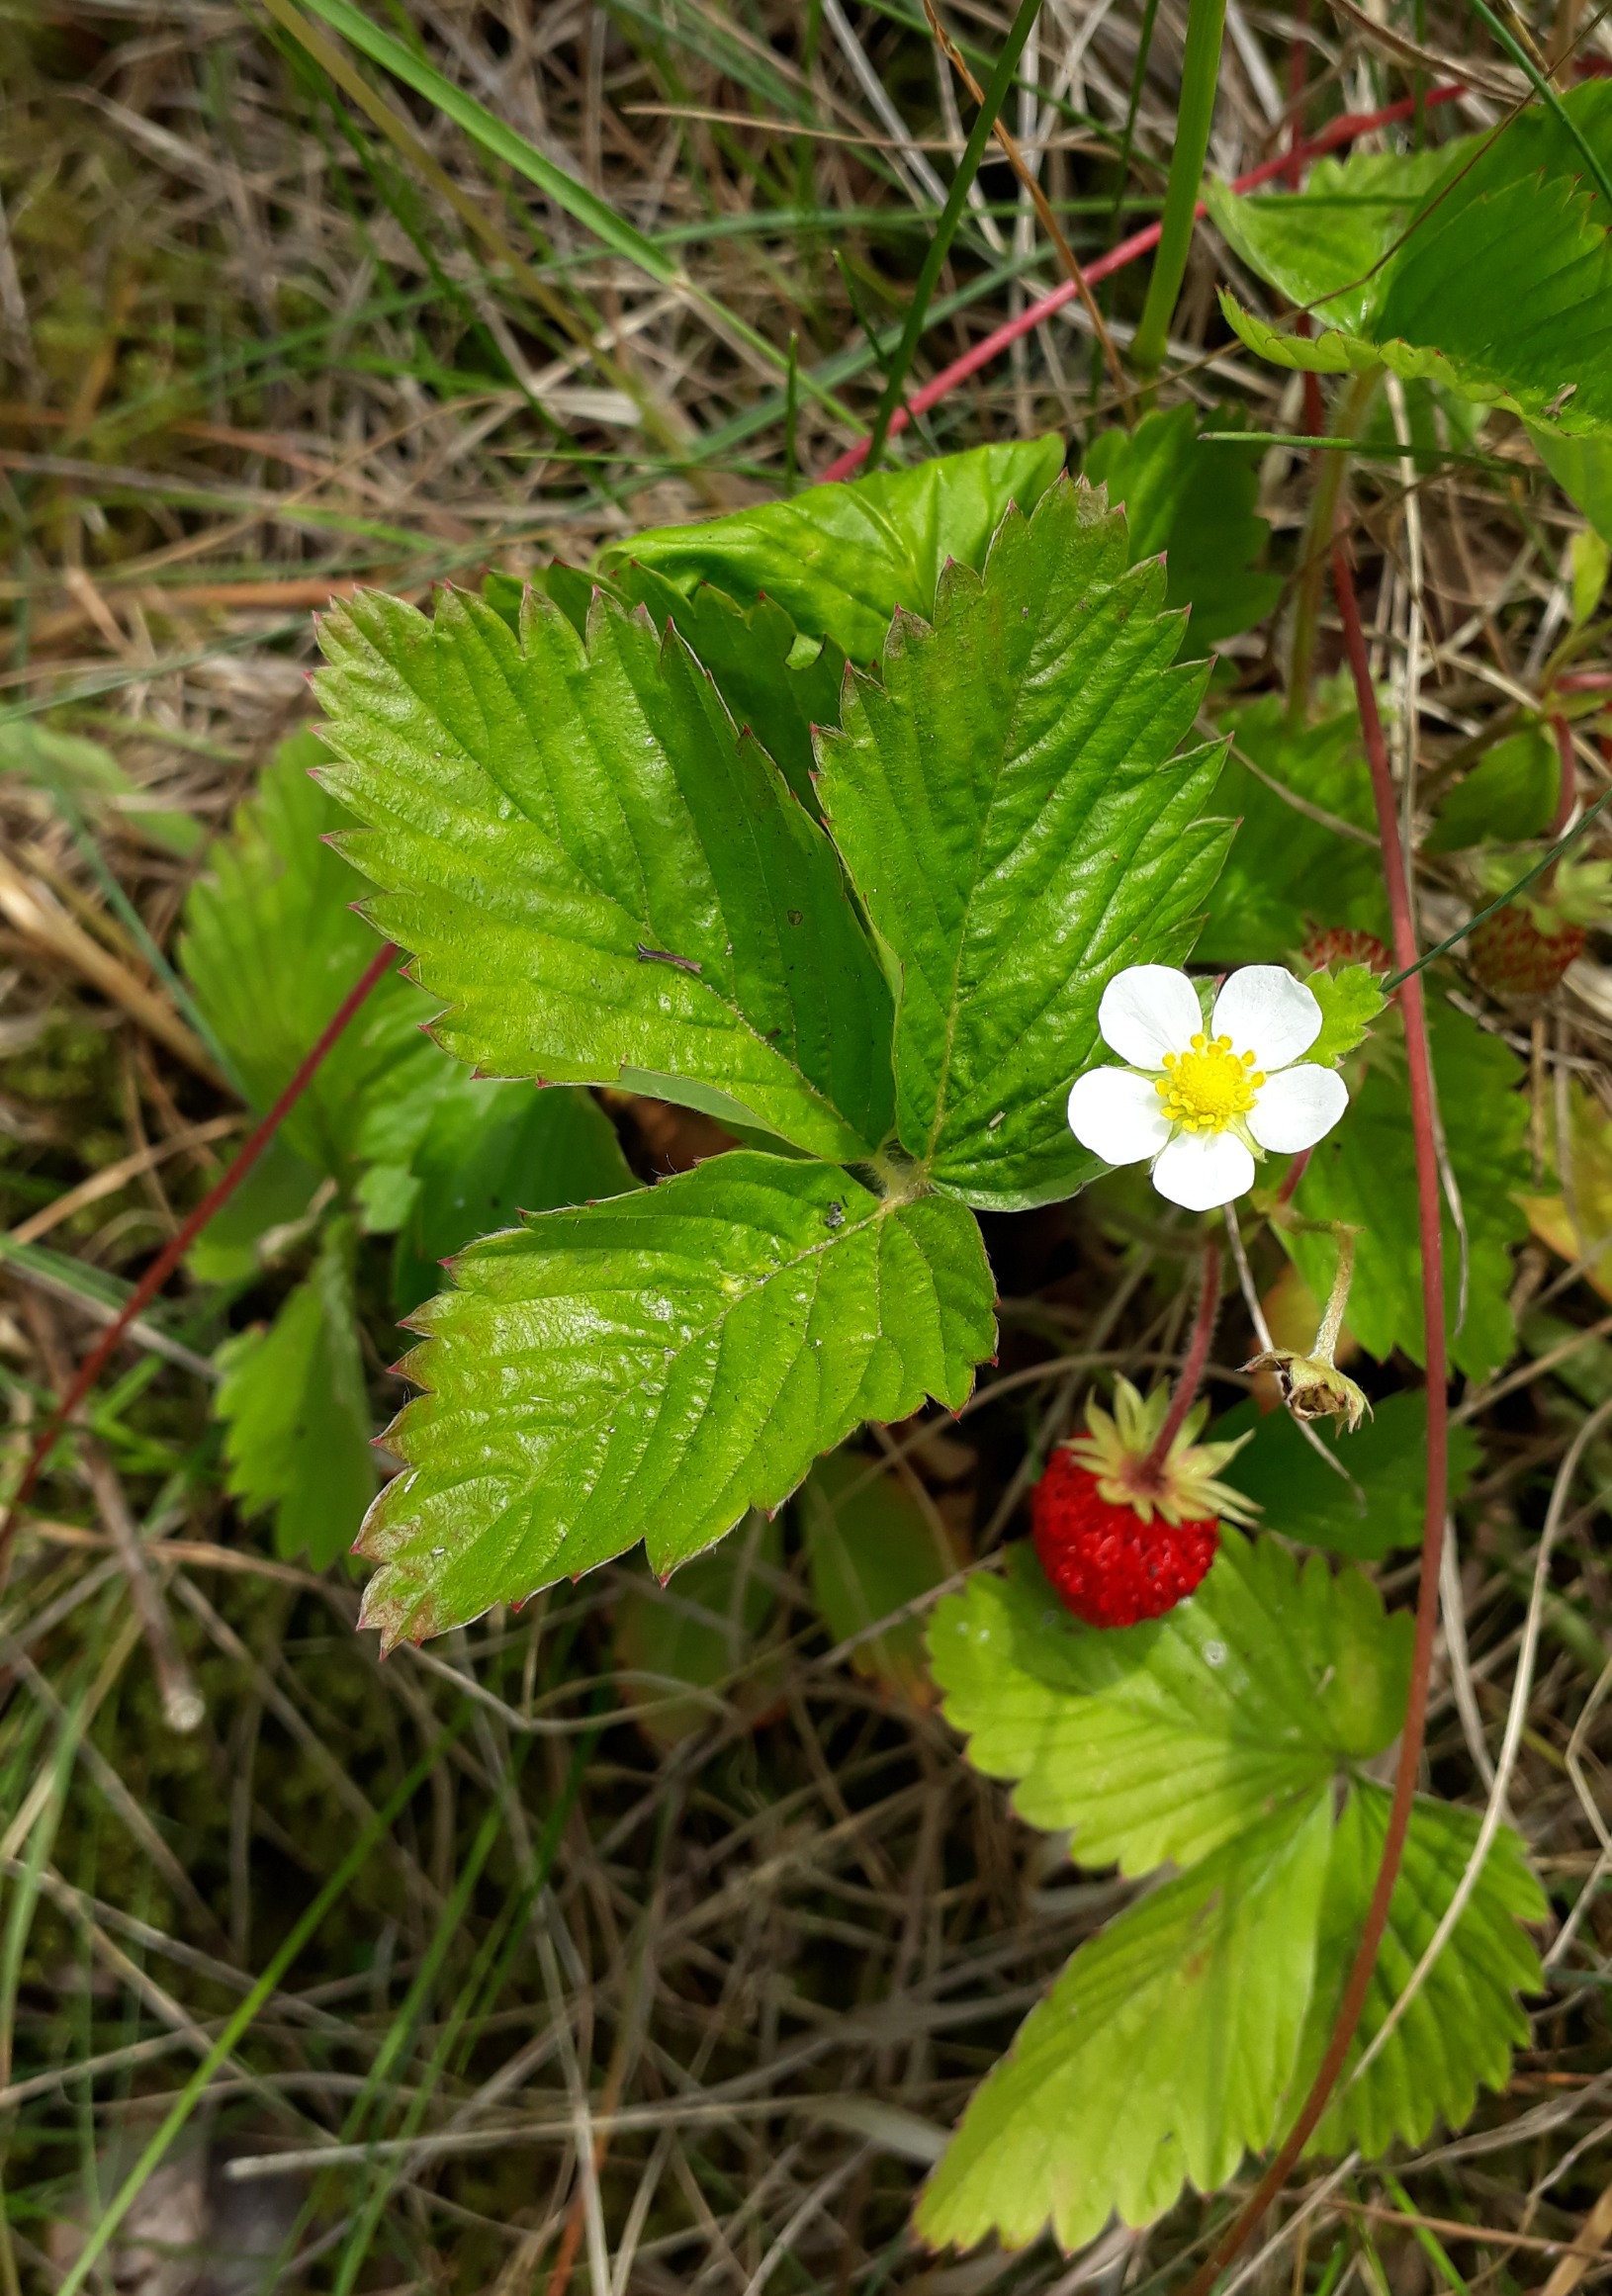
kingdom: Plantae
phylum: Tracheophyta
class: Magnoliopsida
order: Rosales
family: Rosaceae
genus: Fragaria
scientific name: Fragaria vesca
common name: Skov-jordbær
